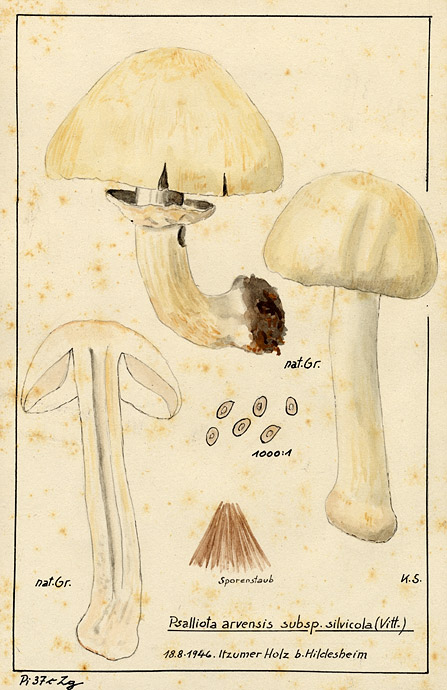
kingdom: Fungi
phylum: Basidiomycota
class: Agaricomycetes
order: Agaricales
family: Agaricaceae
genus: Agaricus
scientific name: Agaricus sylvicola
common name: Wood mushroom
